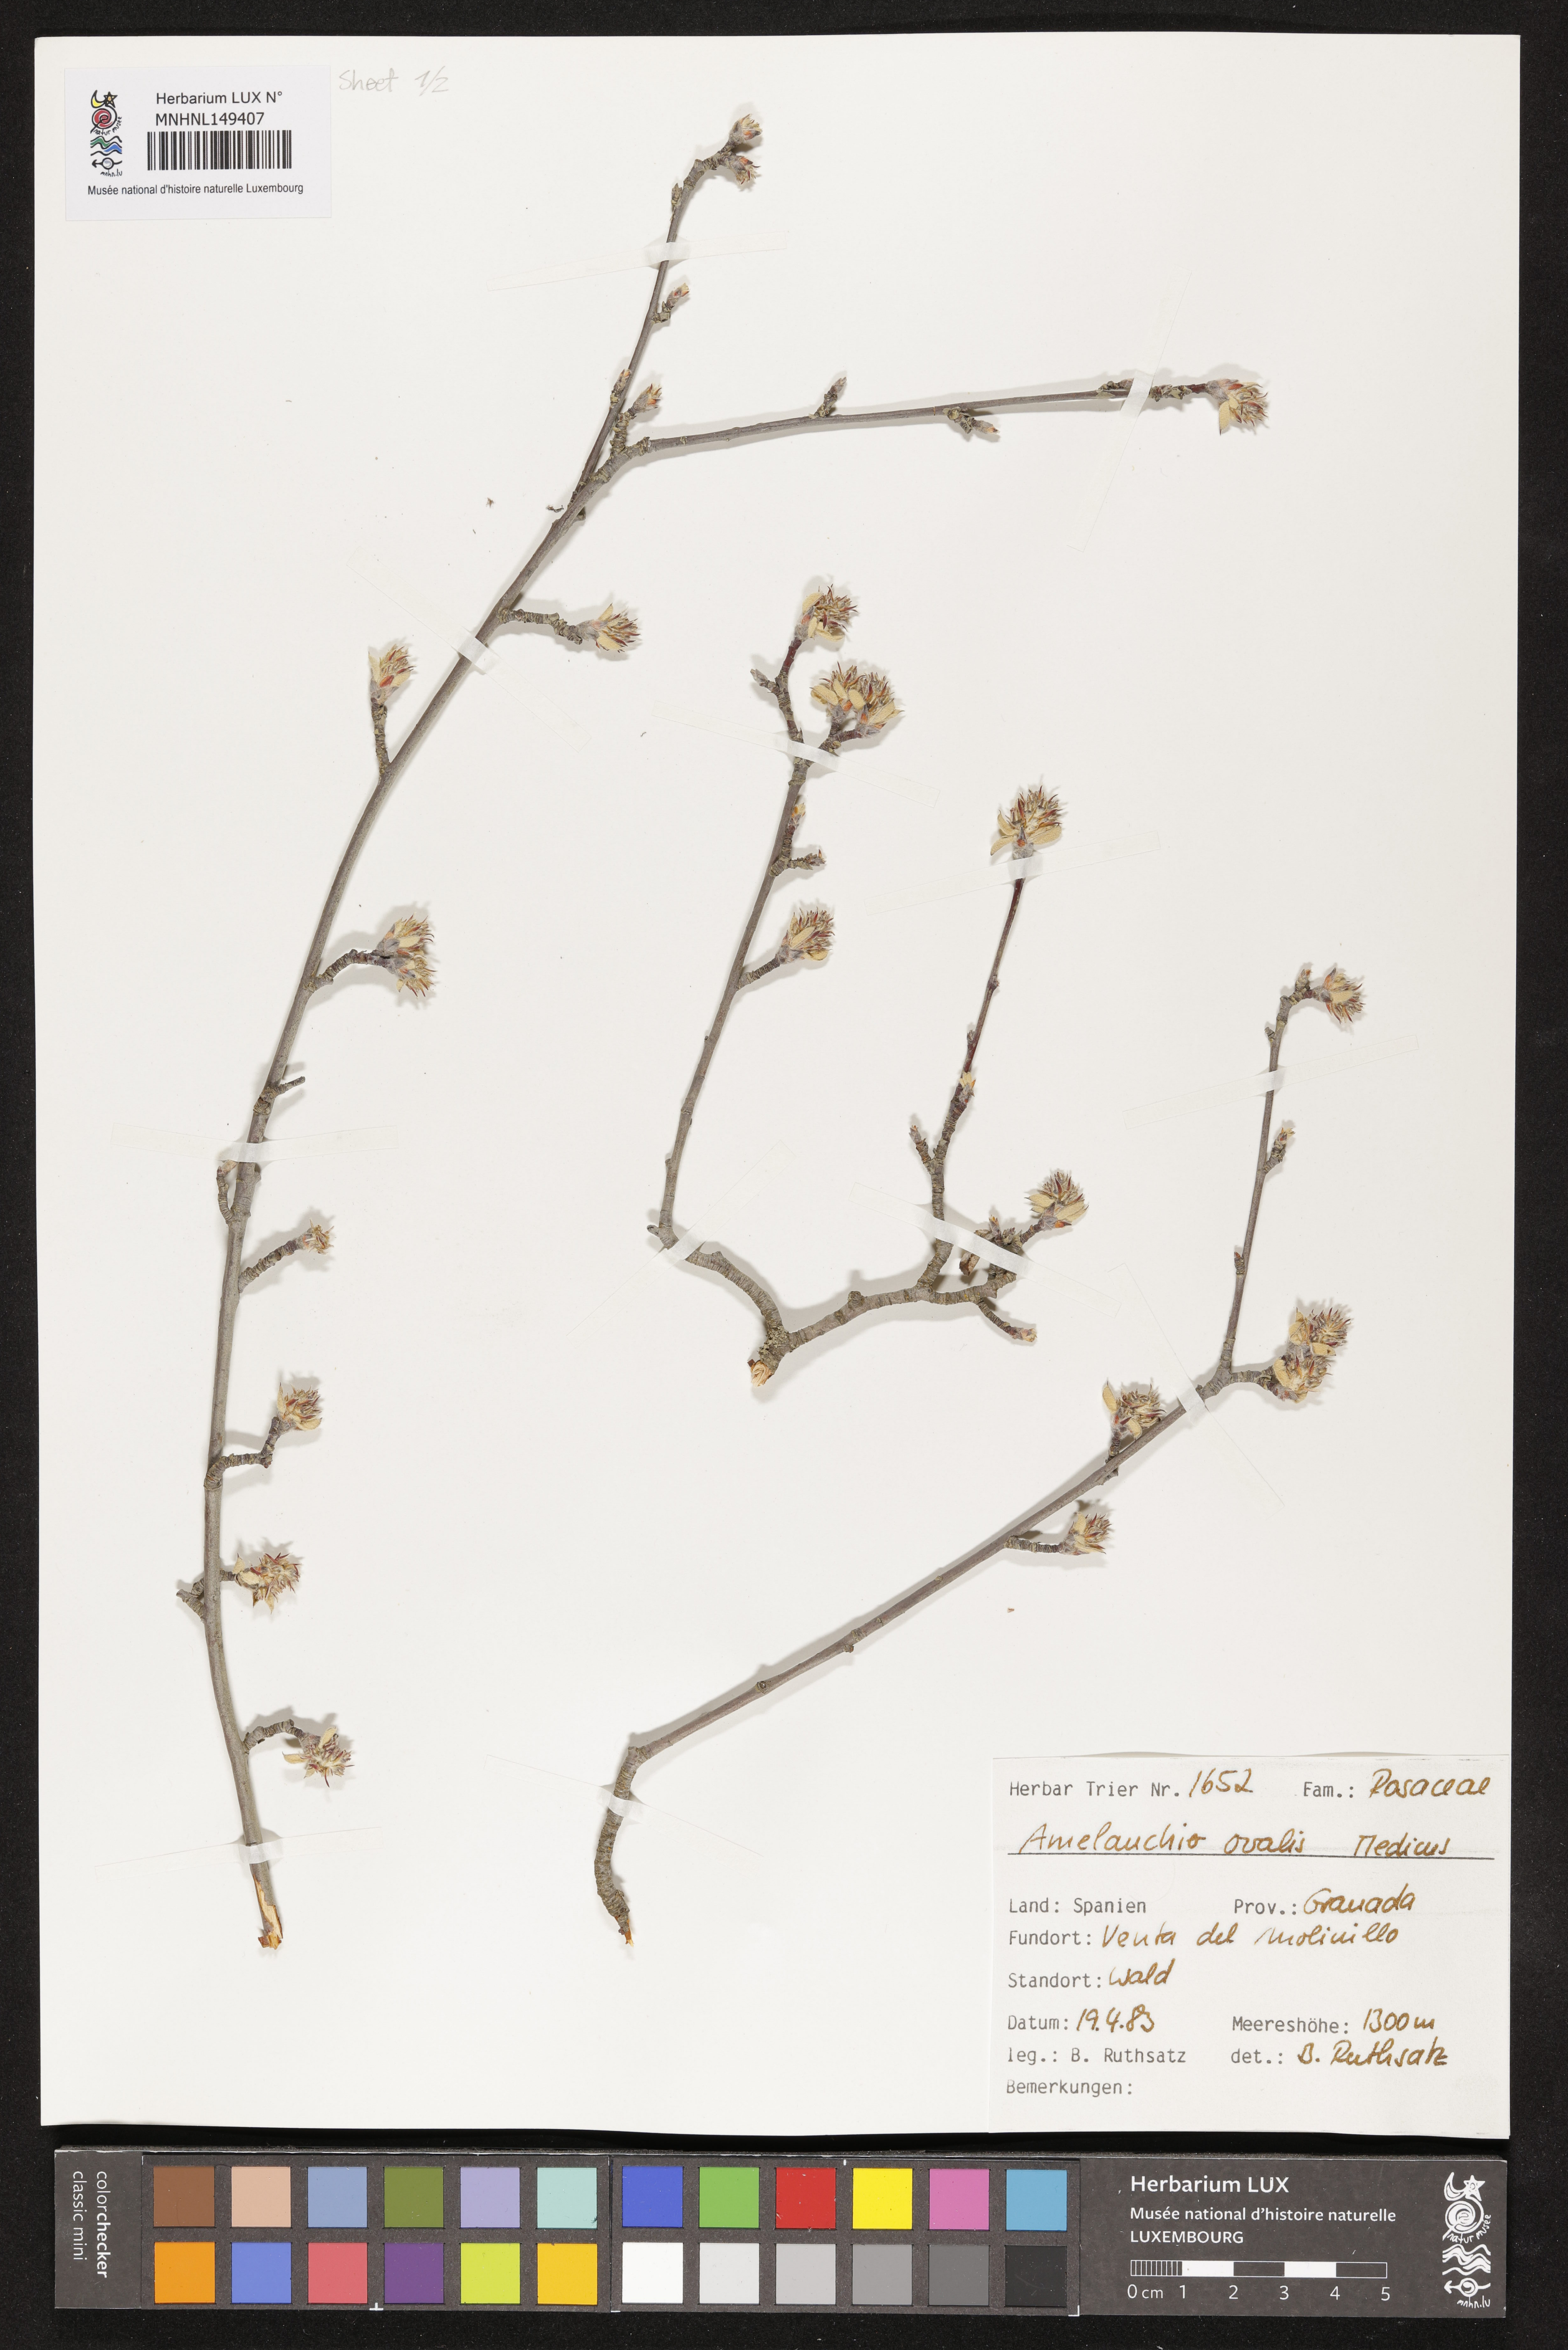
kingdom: Plantae
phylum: Tracheophyta
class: Magnoliopsida
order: Rosales
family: Rosaceae
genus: Amelanchier
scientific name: Amelanchier ovalis
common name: Serviceberry
